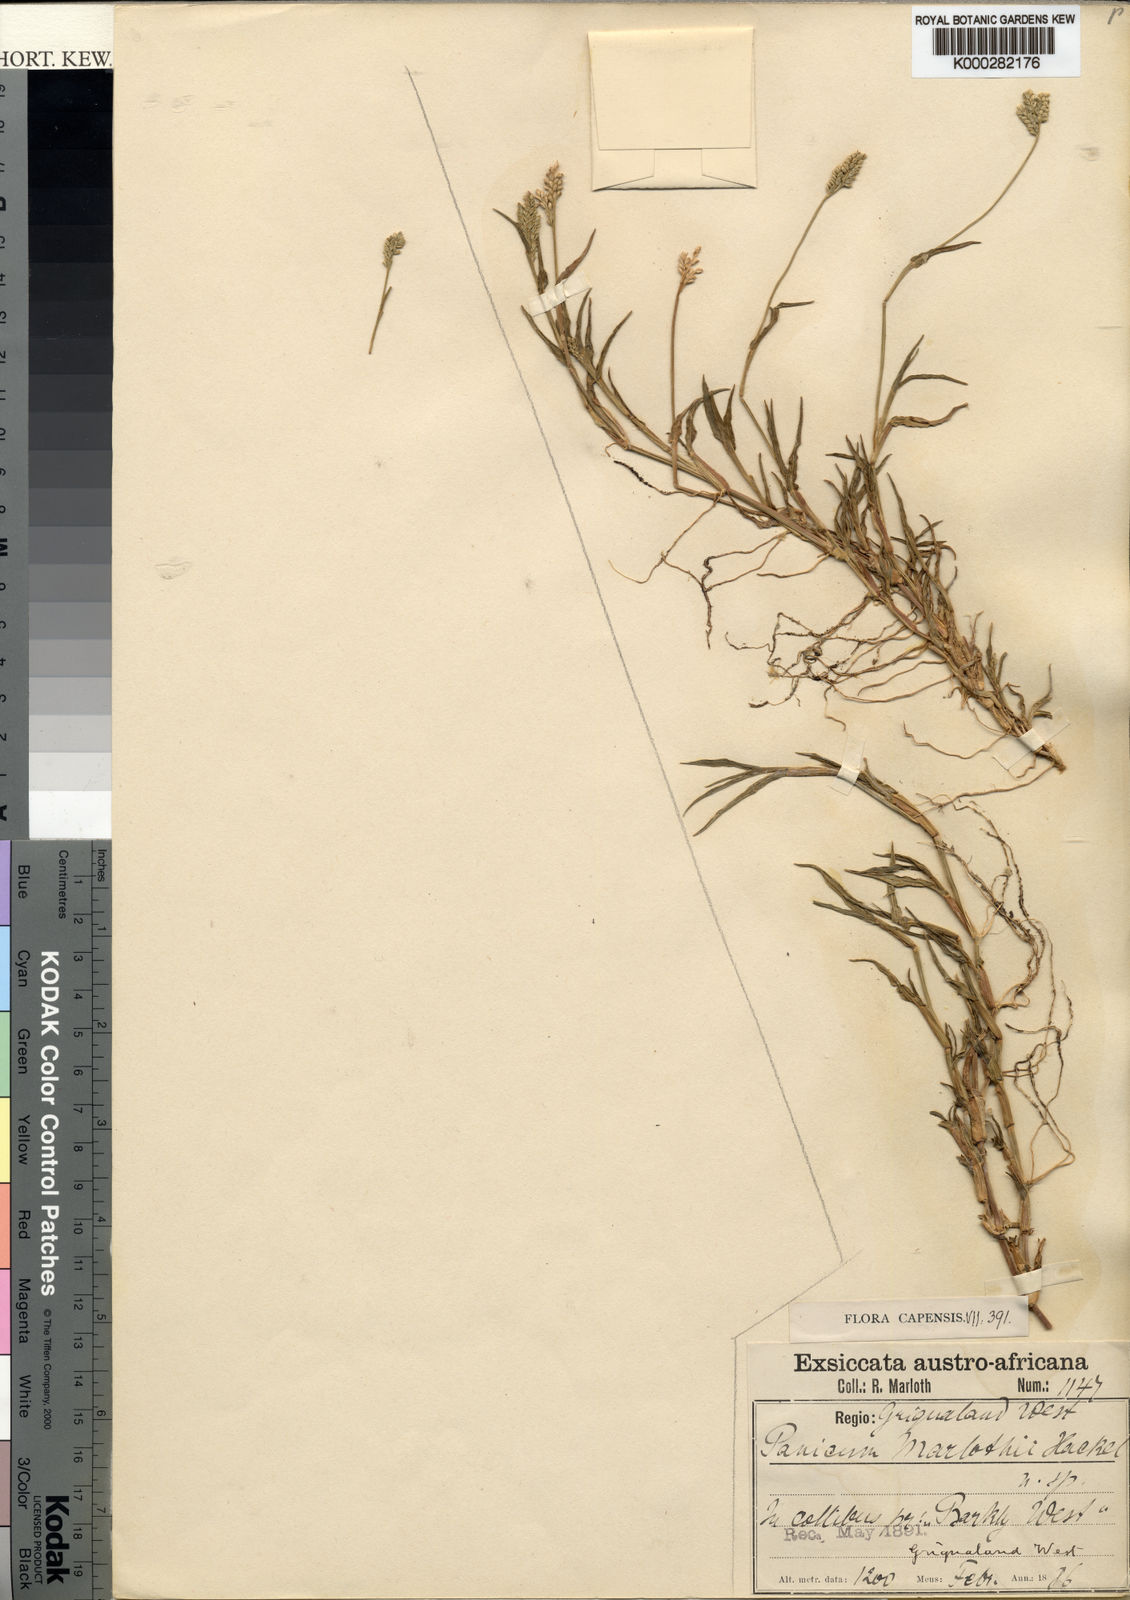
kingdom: Plantae
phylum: Tracheophyta
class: Liliopsida
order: Poales
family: Poaceae
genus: Urochloa
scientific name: Urochloa Brachiaria marlothii
